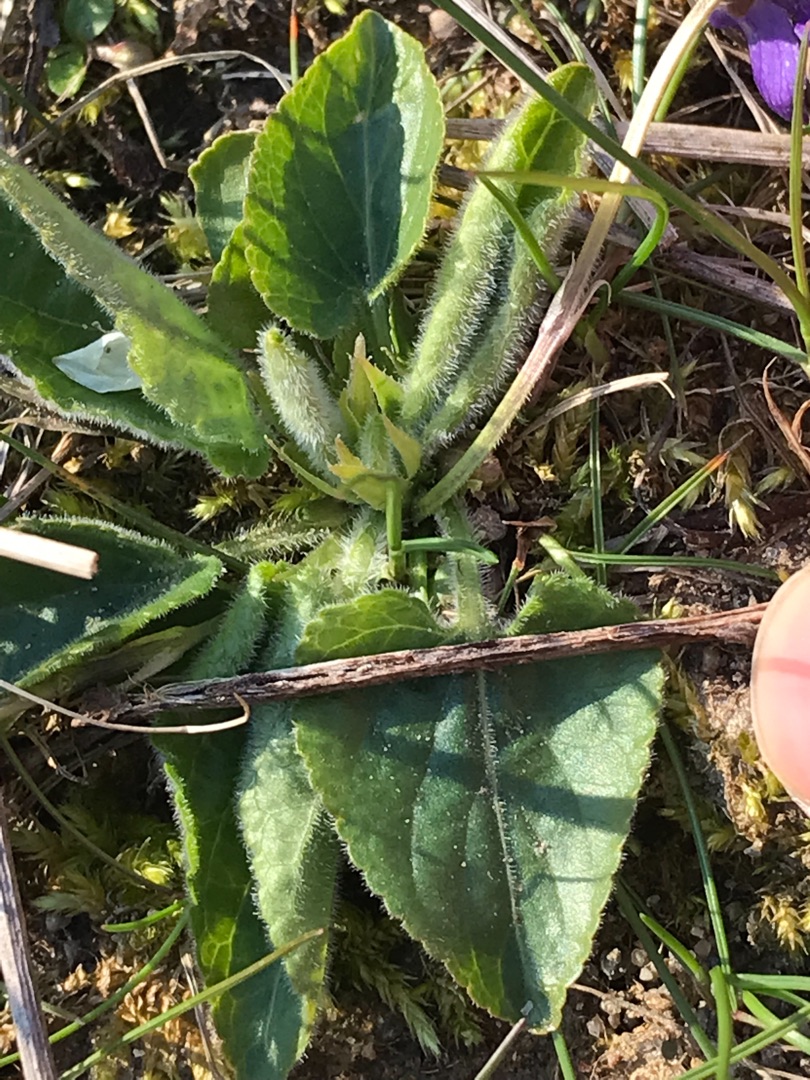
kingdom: Plantae
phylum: Tracheophyta
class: Magnoliopsida
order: Malpighiales
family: Violaceae
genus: Viola
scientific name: Viola hirta
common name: Håret viol
